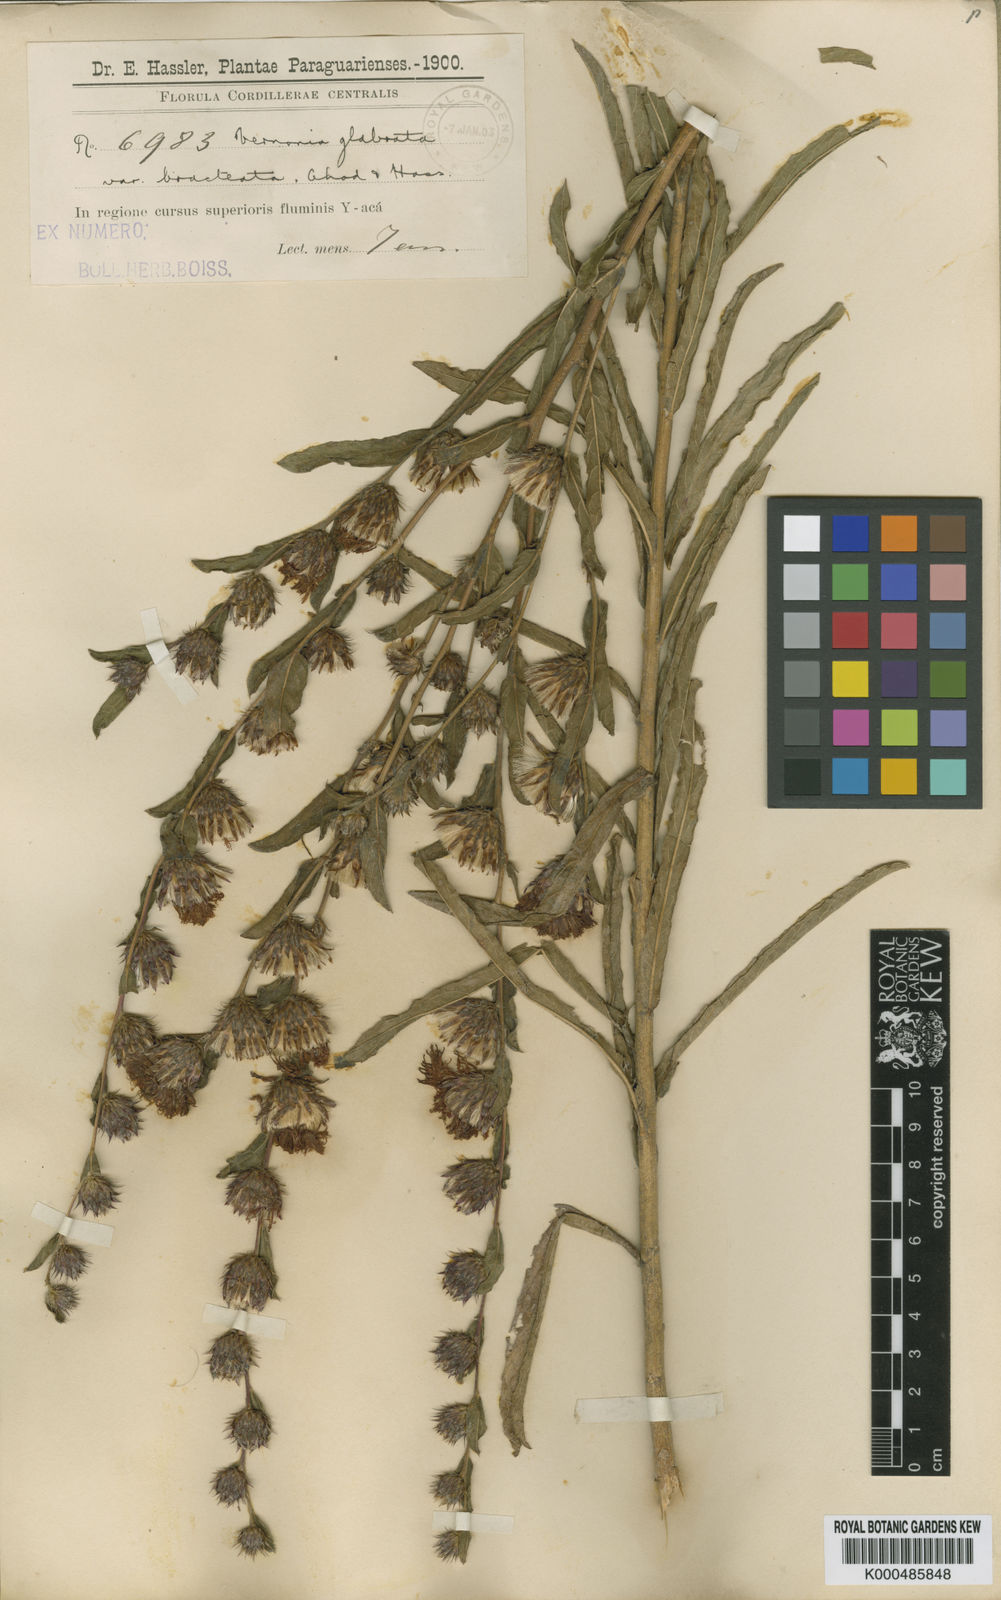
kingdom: Plantae
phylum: Tracheophyta
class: Magnoliopsida
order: Asterales
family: Asteraceae
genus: Lessingianthus
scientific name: Lessingianthus glabratus
